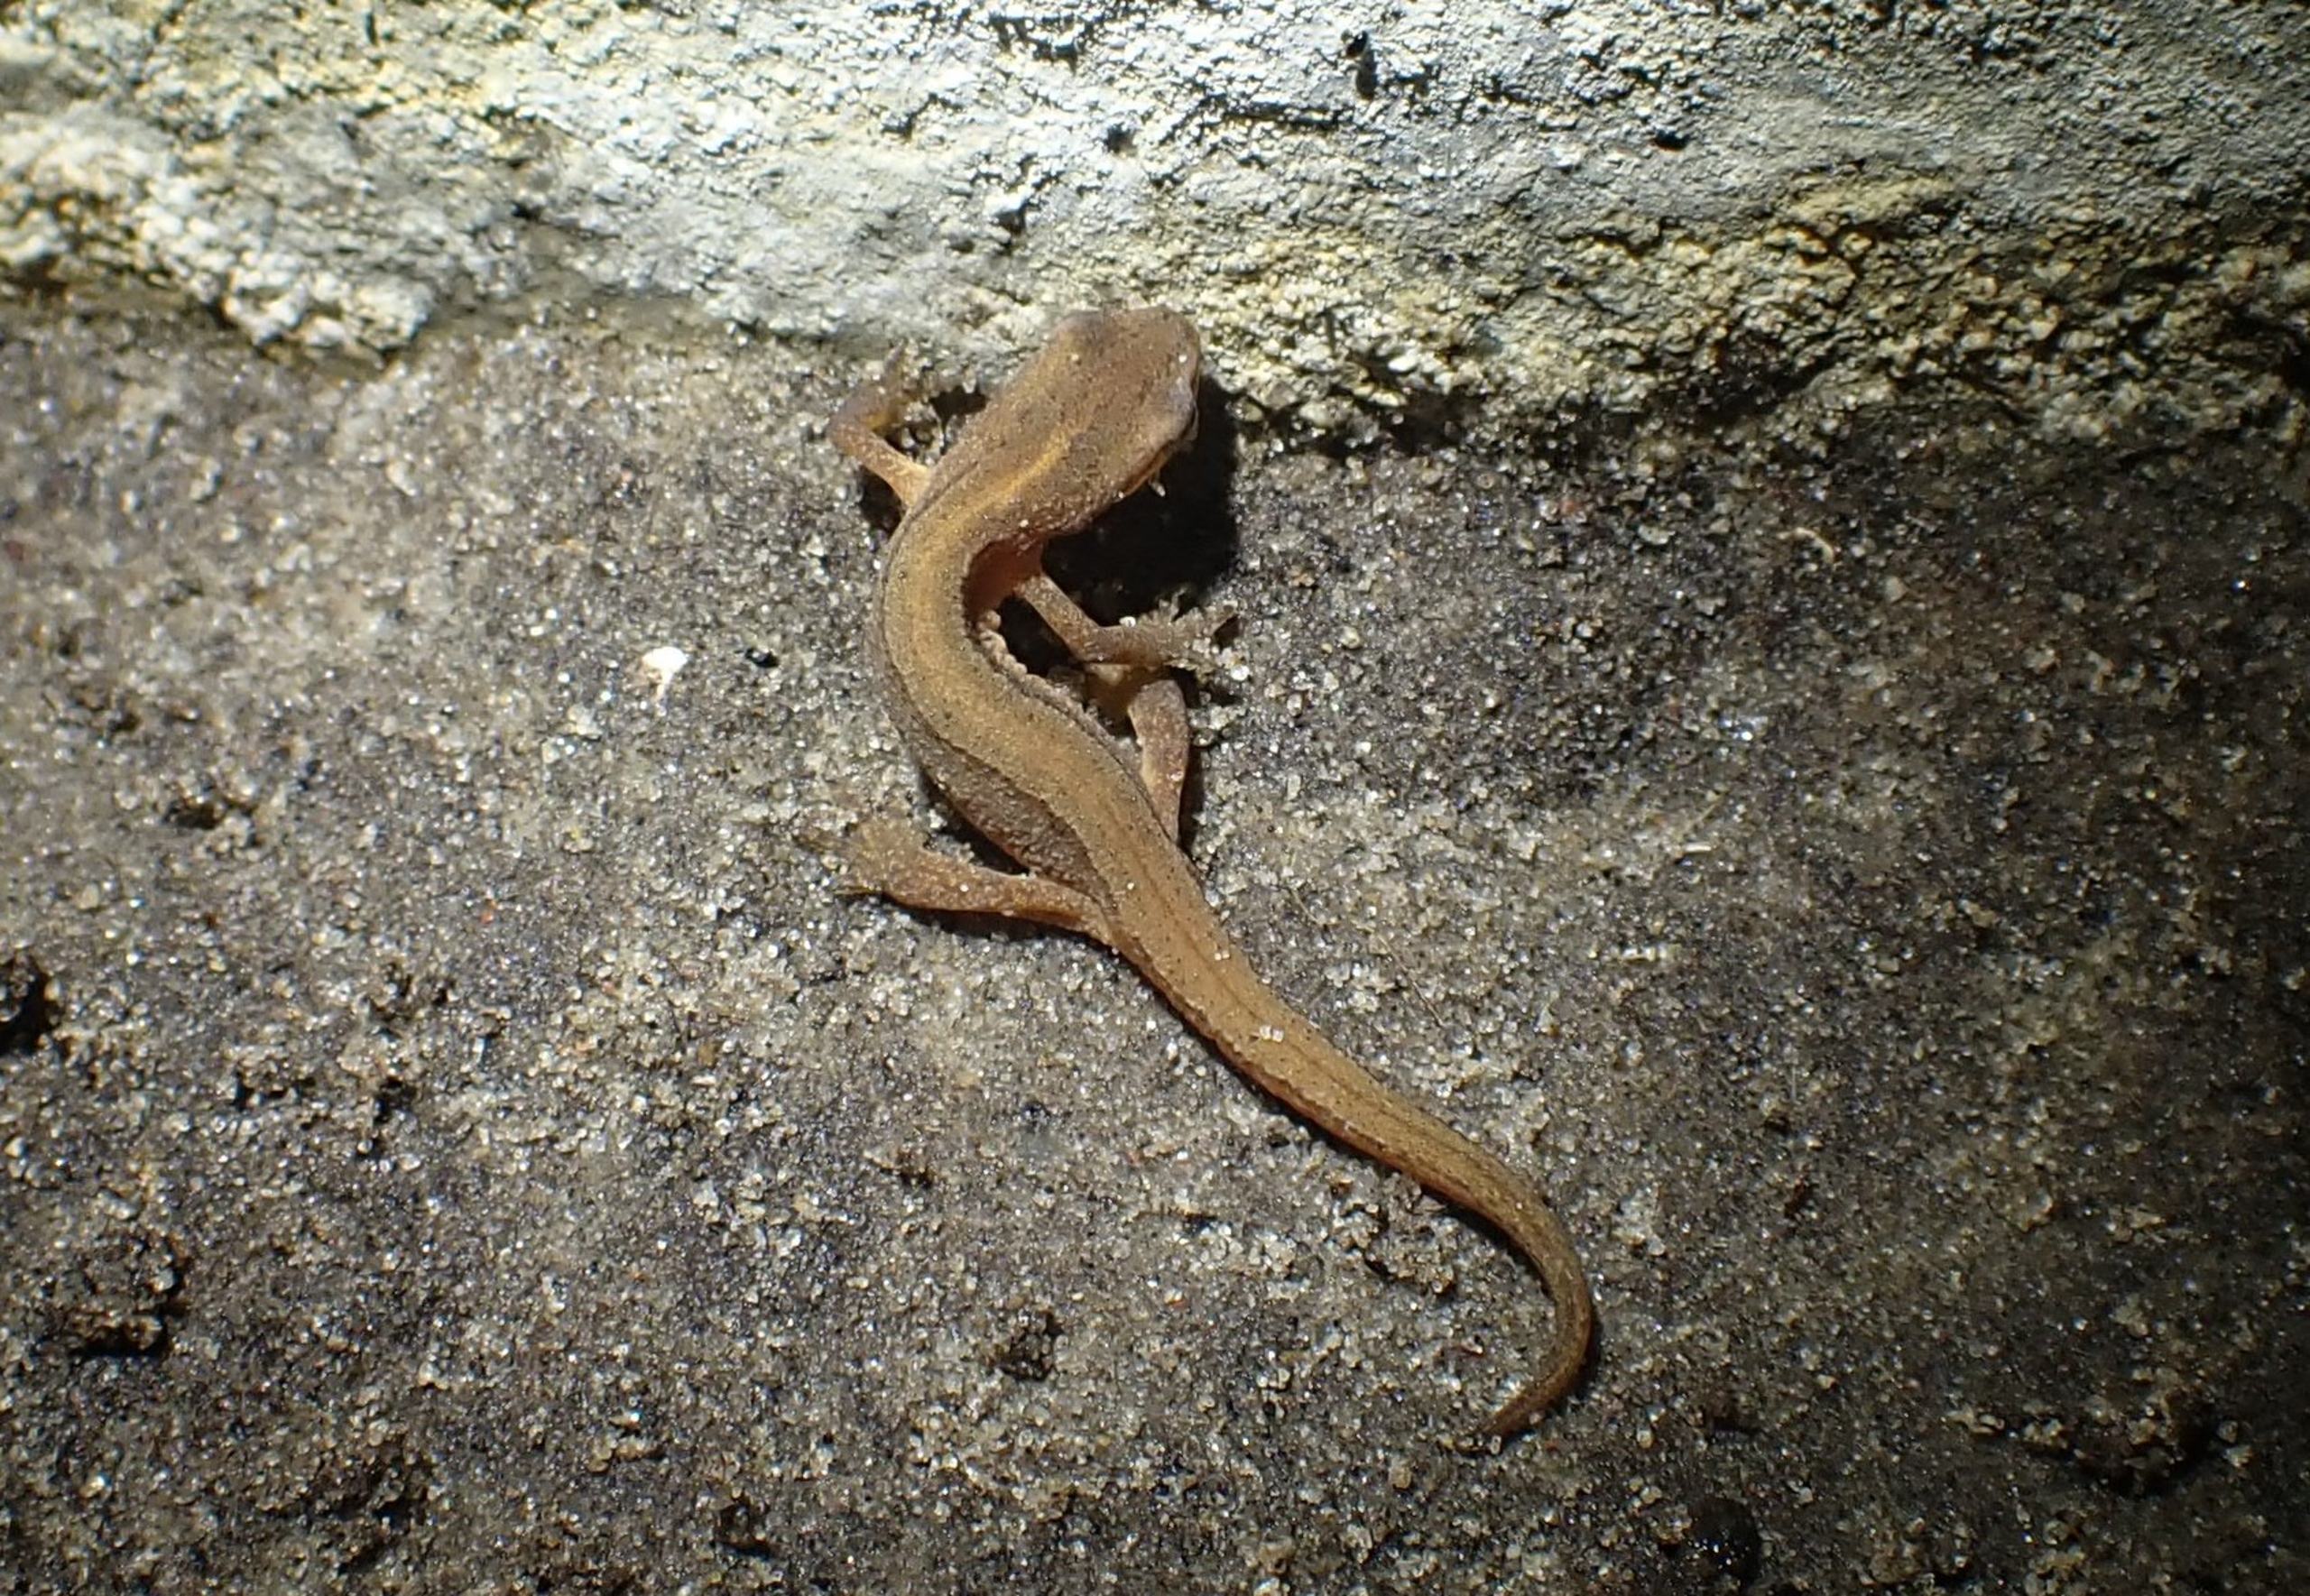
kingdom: Animalia
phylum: Chordata
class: Amphibia
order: Caudata
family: Salamandridae
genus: Lissotriton
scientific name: Lissotriton vulgaris
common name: Lille vandsalamander
